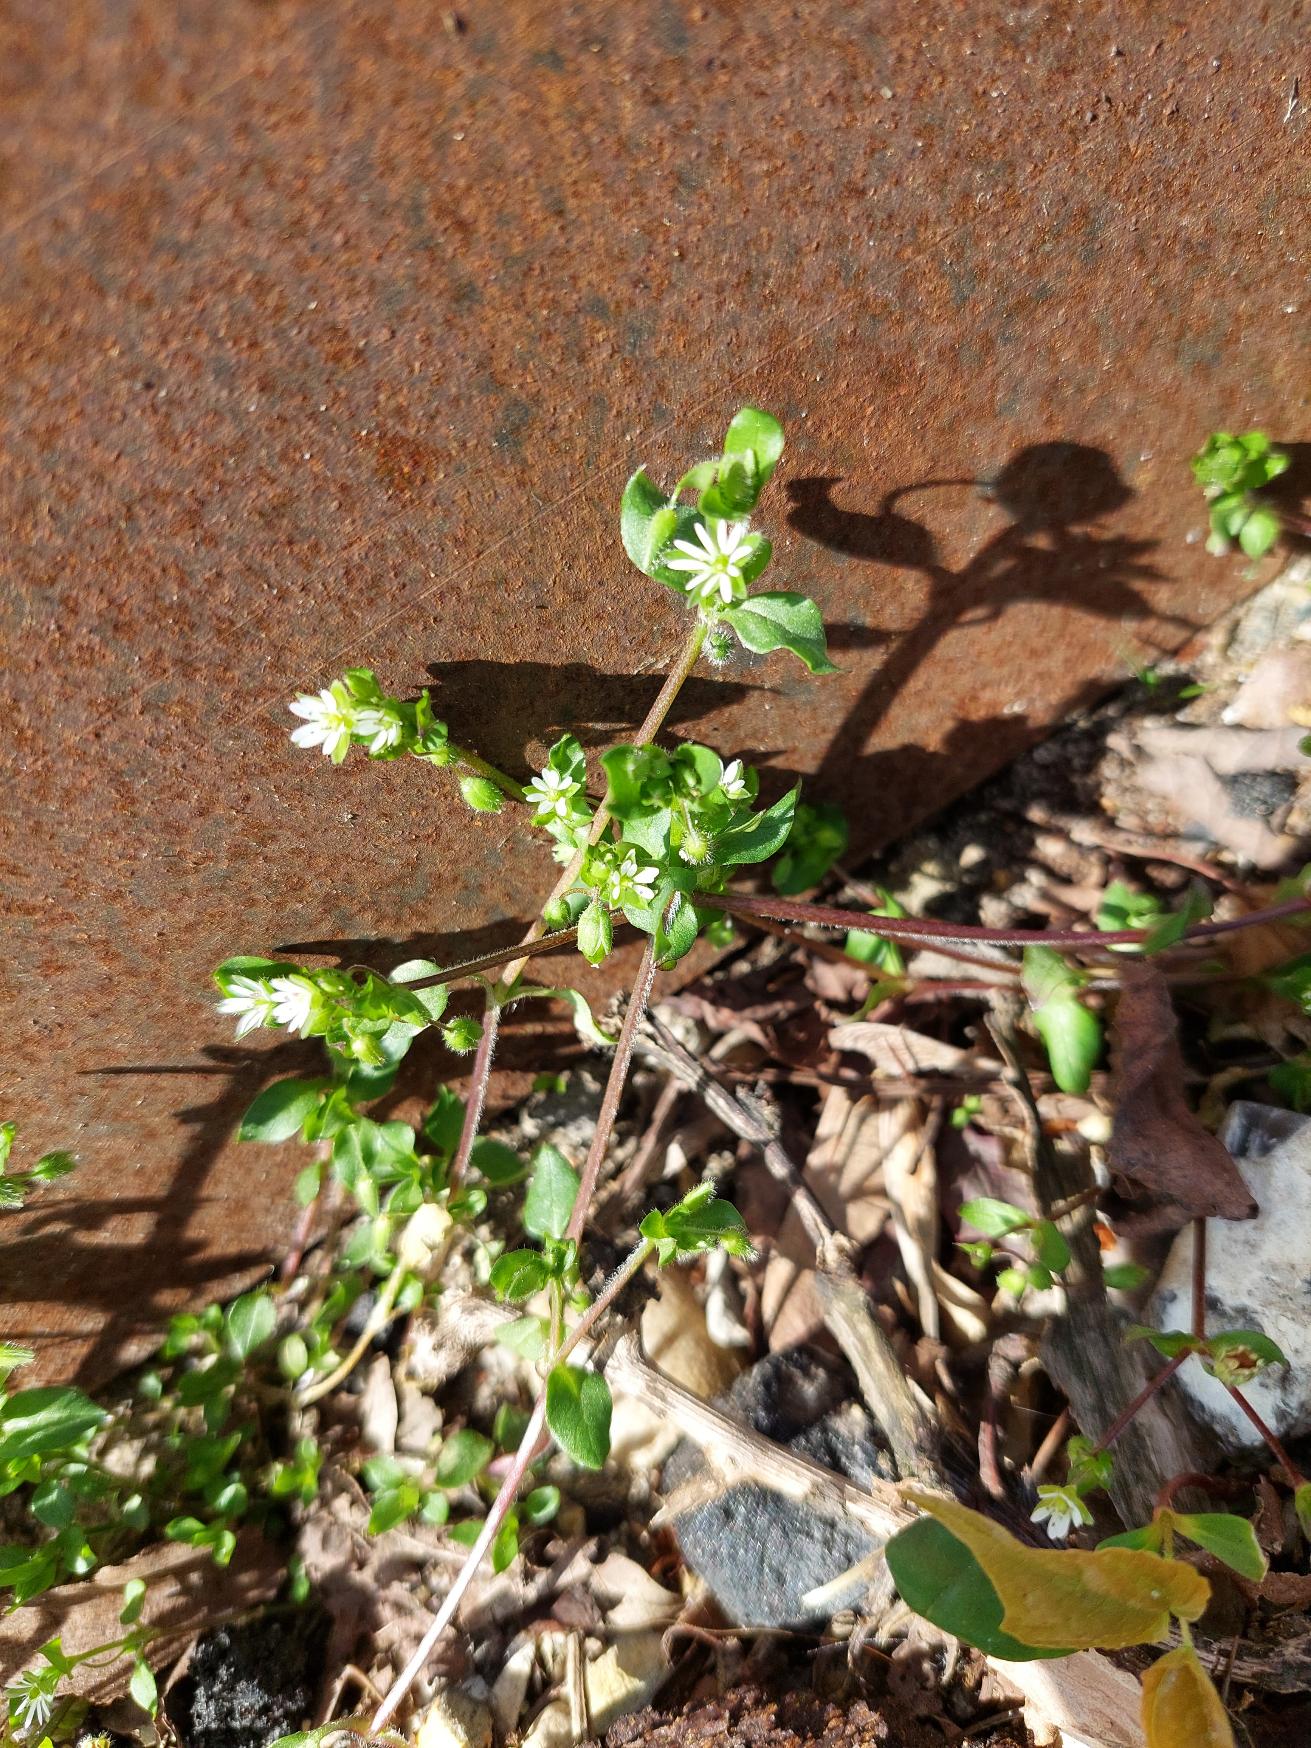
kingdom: Plantae
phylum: Tracheophyta
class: Magnoliopsida
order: Caryophyllales
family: Caryophyllaceae
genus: Stellaria
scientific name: Stellaria media
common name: Almindelig fuglegræs
